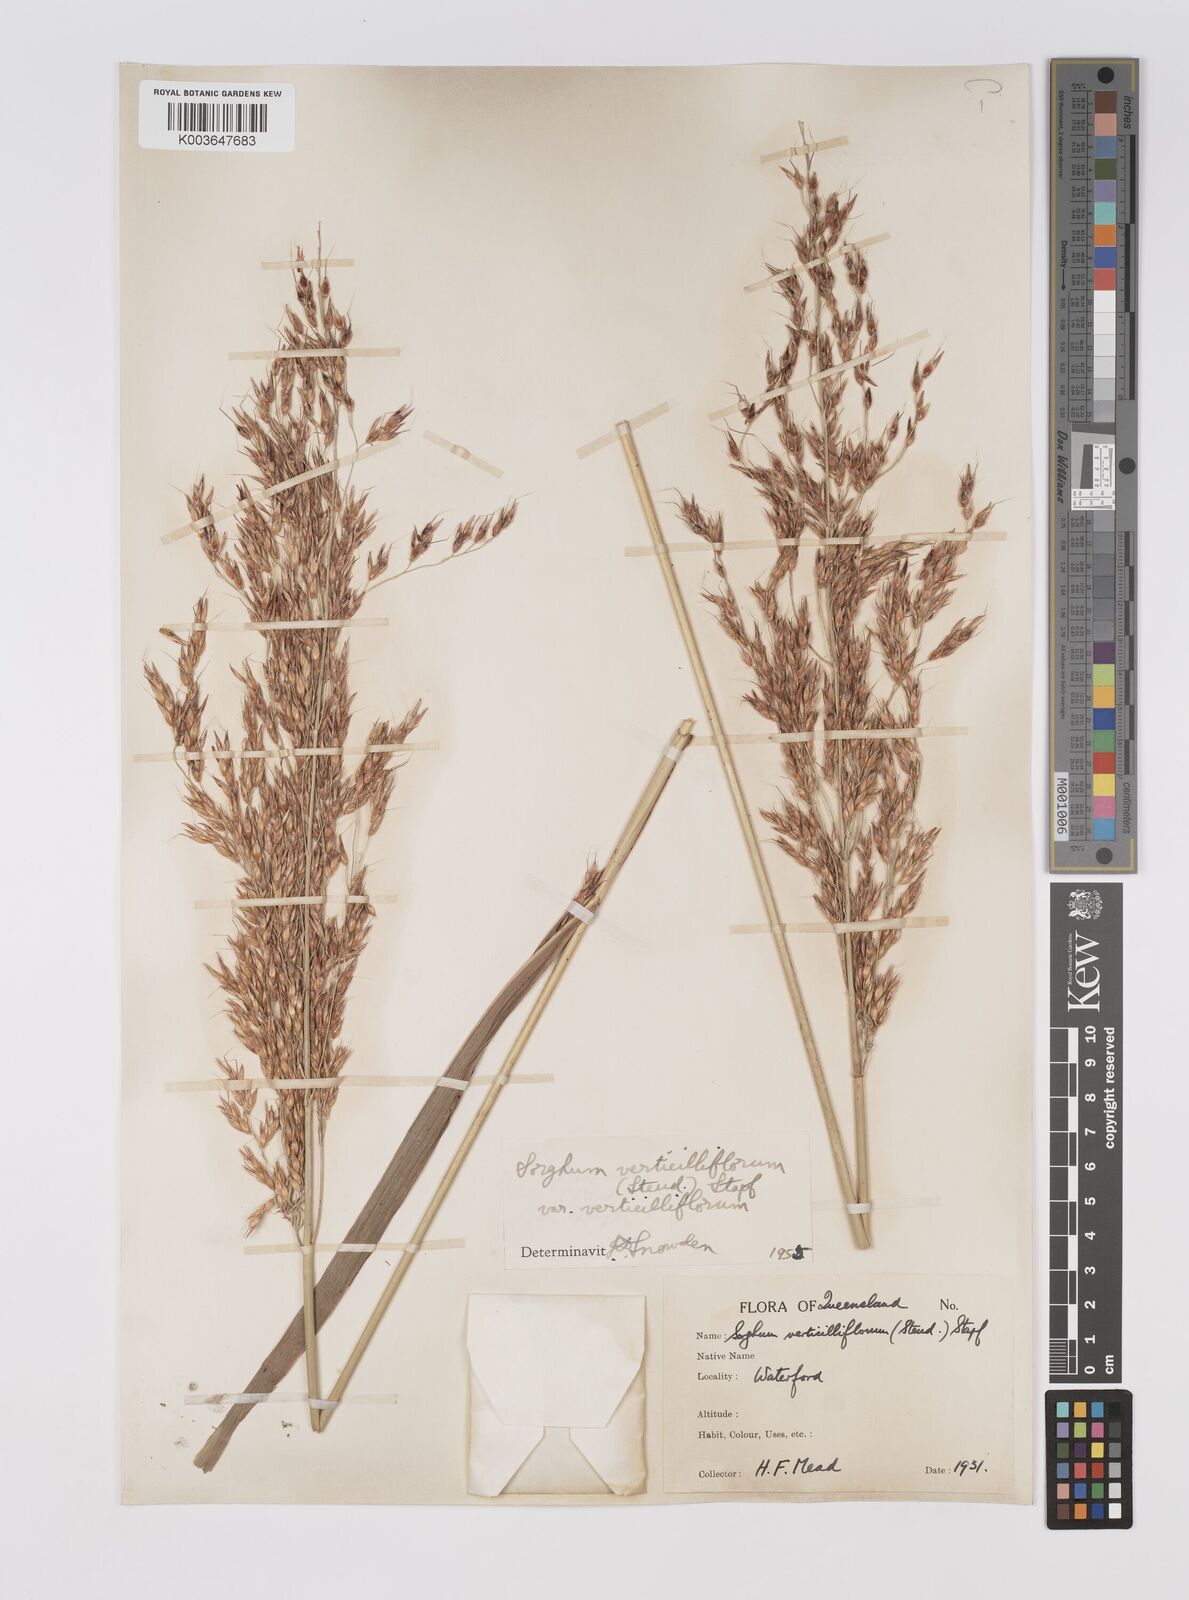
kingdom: Plantae
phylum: Tracheophyta
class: Liliopsida
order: Poales
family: Poaceae
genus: Sorghum
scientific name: Sorghum arundinaceum
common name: Sorghum
